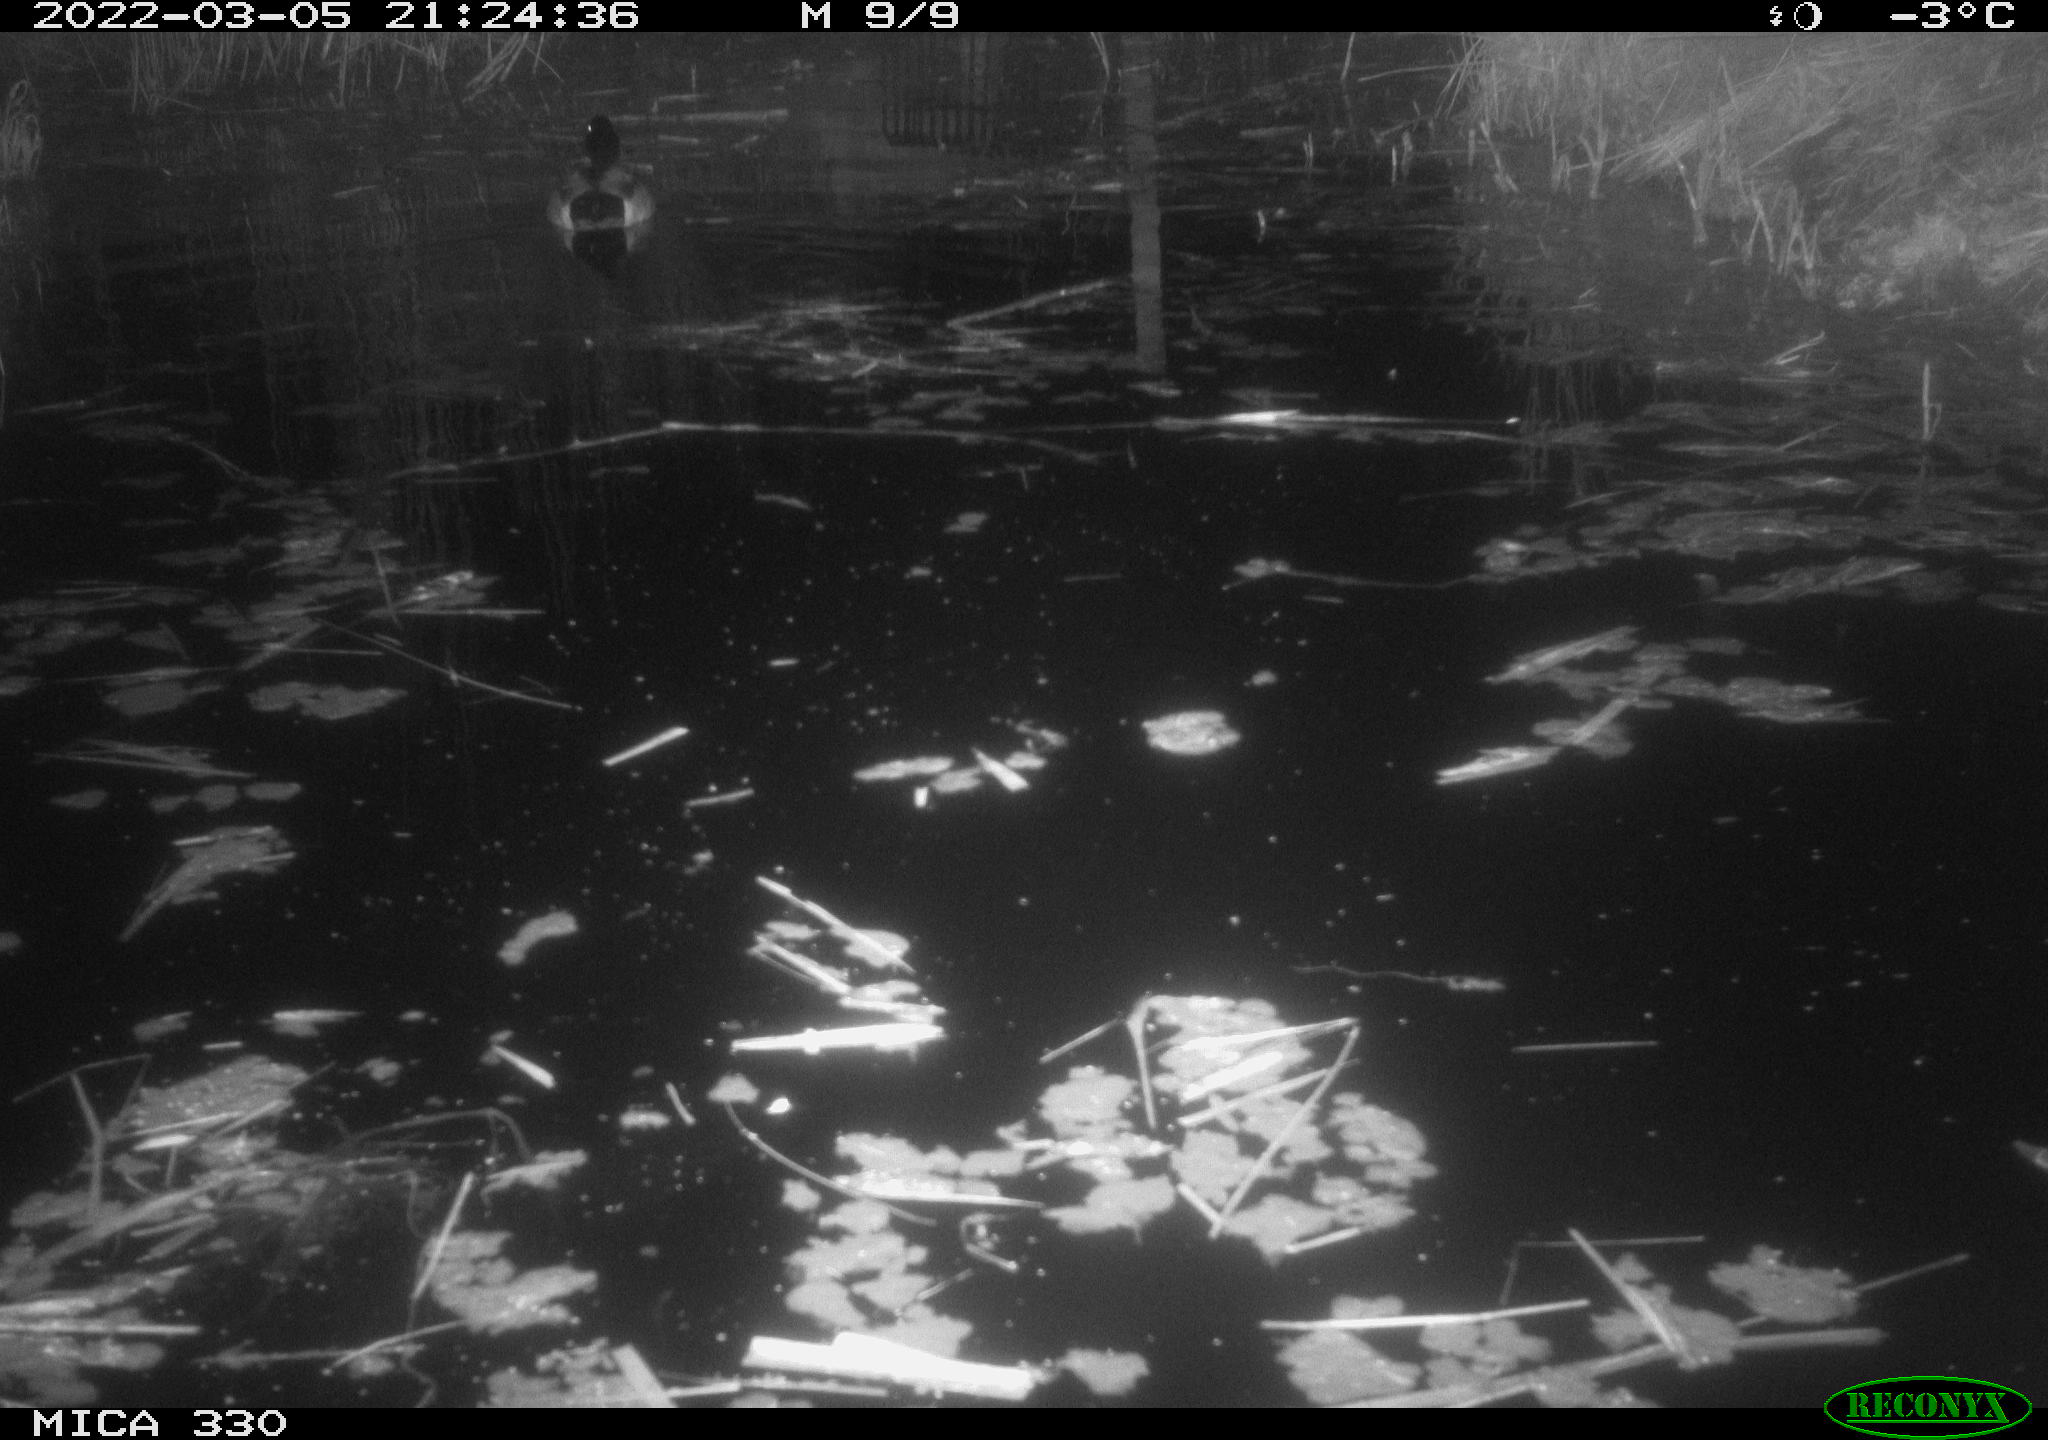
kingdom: Animalia
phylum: Chordata
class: Aves
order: Anseriformes
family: Anatidae
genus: Anas
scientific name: Anas platyrhynchos
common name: Mallard
